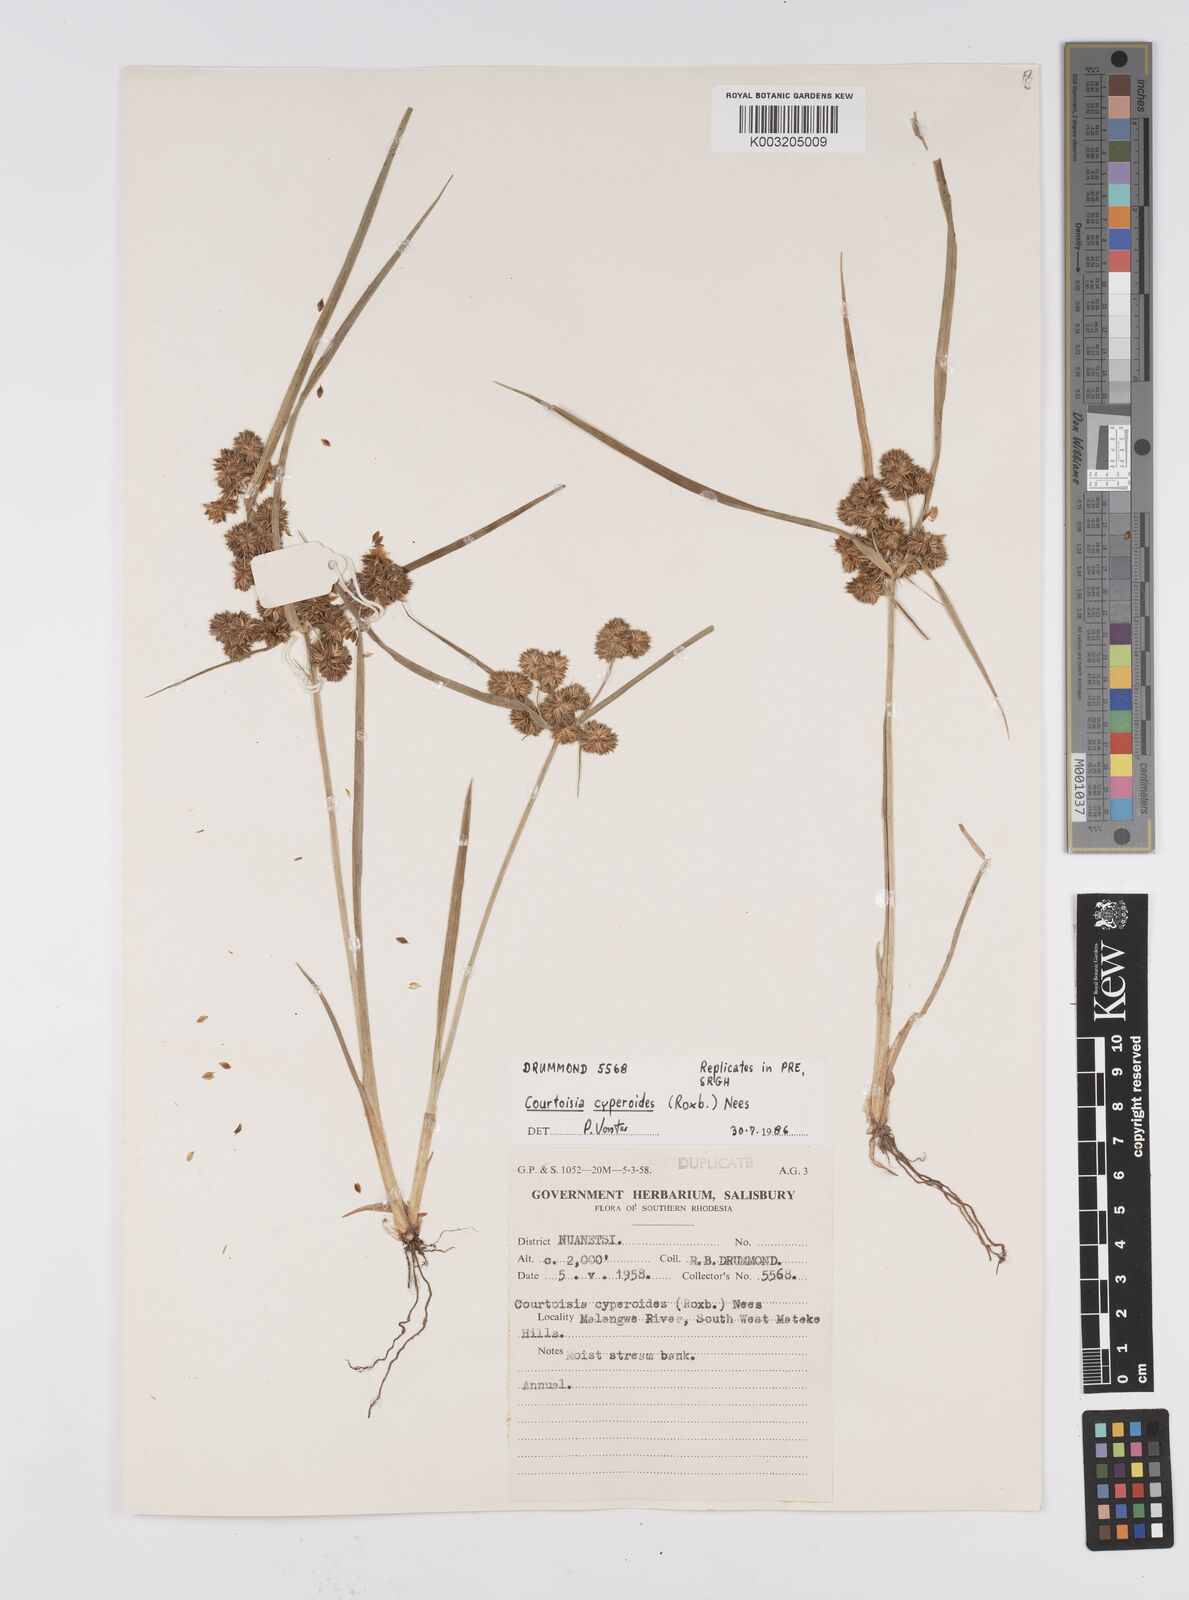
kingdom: Plantae
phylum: Tracheophyta
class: Liliopsida
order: Poales
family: Cyperaceae
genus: Cyperus
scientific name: Cyperus cyperoides
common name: Pacific island flat sedge
